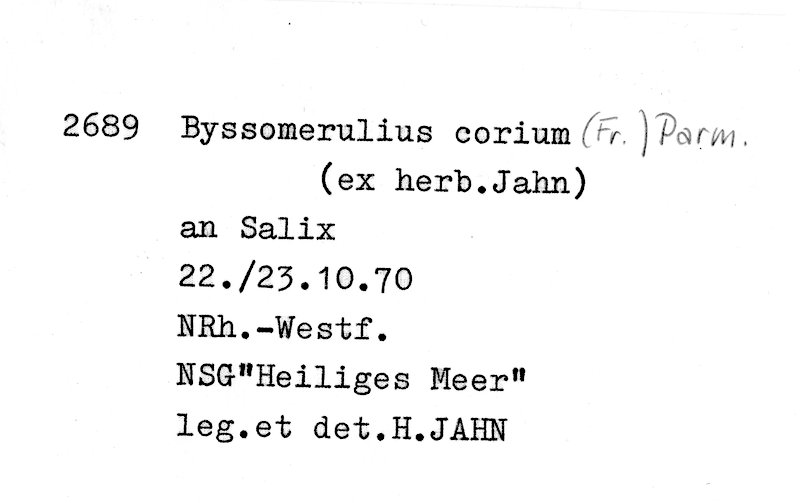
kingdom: Plantae
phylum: Tracheophyta
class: Magnoliopsida
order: Malpighiales
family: Salicaceae
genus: Salix
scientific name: Salix
